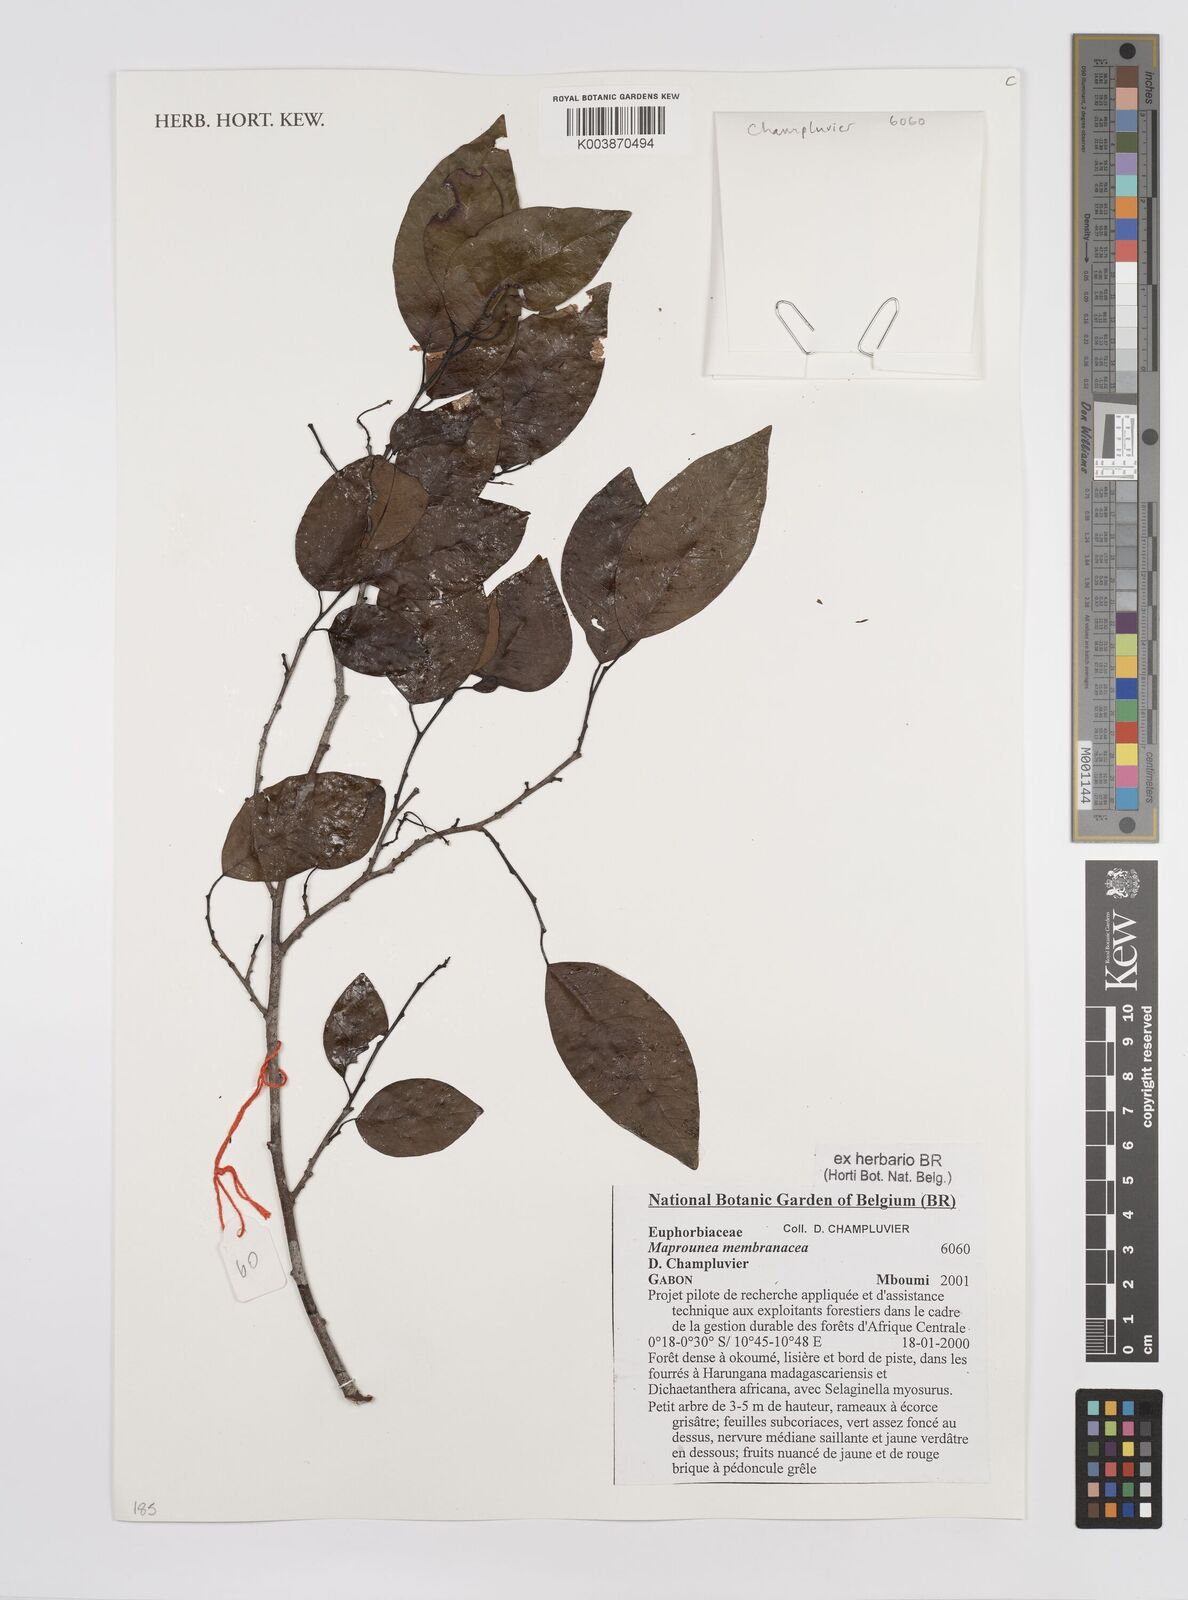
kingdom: Plantae
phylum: Tracheophyta
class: Magnoliopsida
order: Malpighiales
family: Euphorbiaceae
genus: Maprounea
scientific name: Maprounea membranacea
